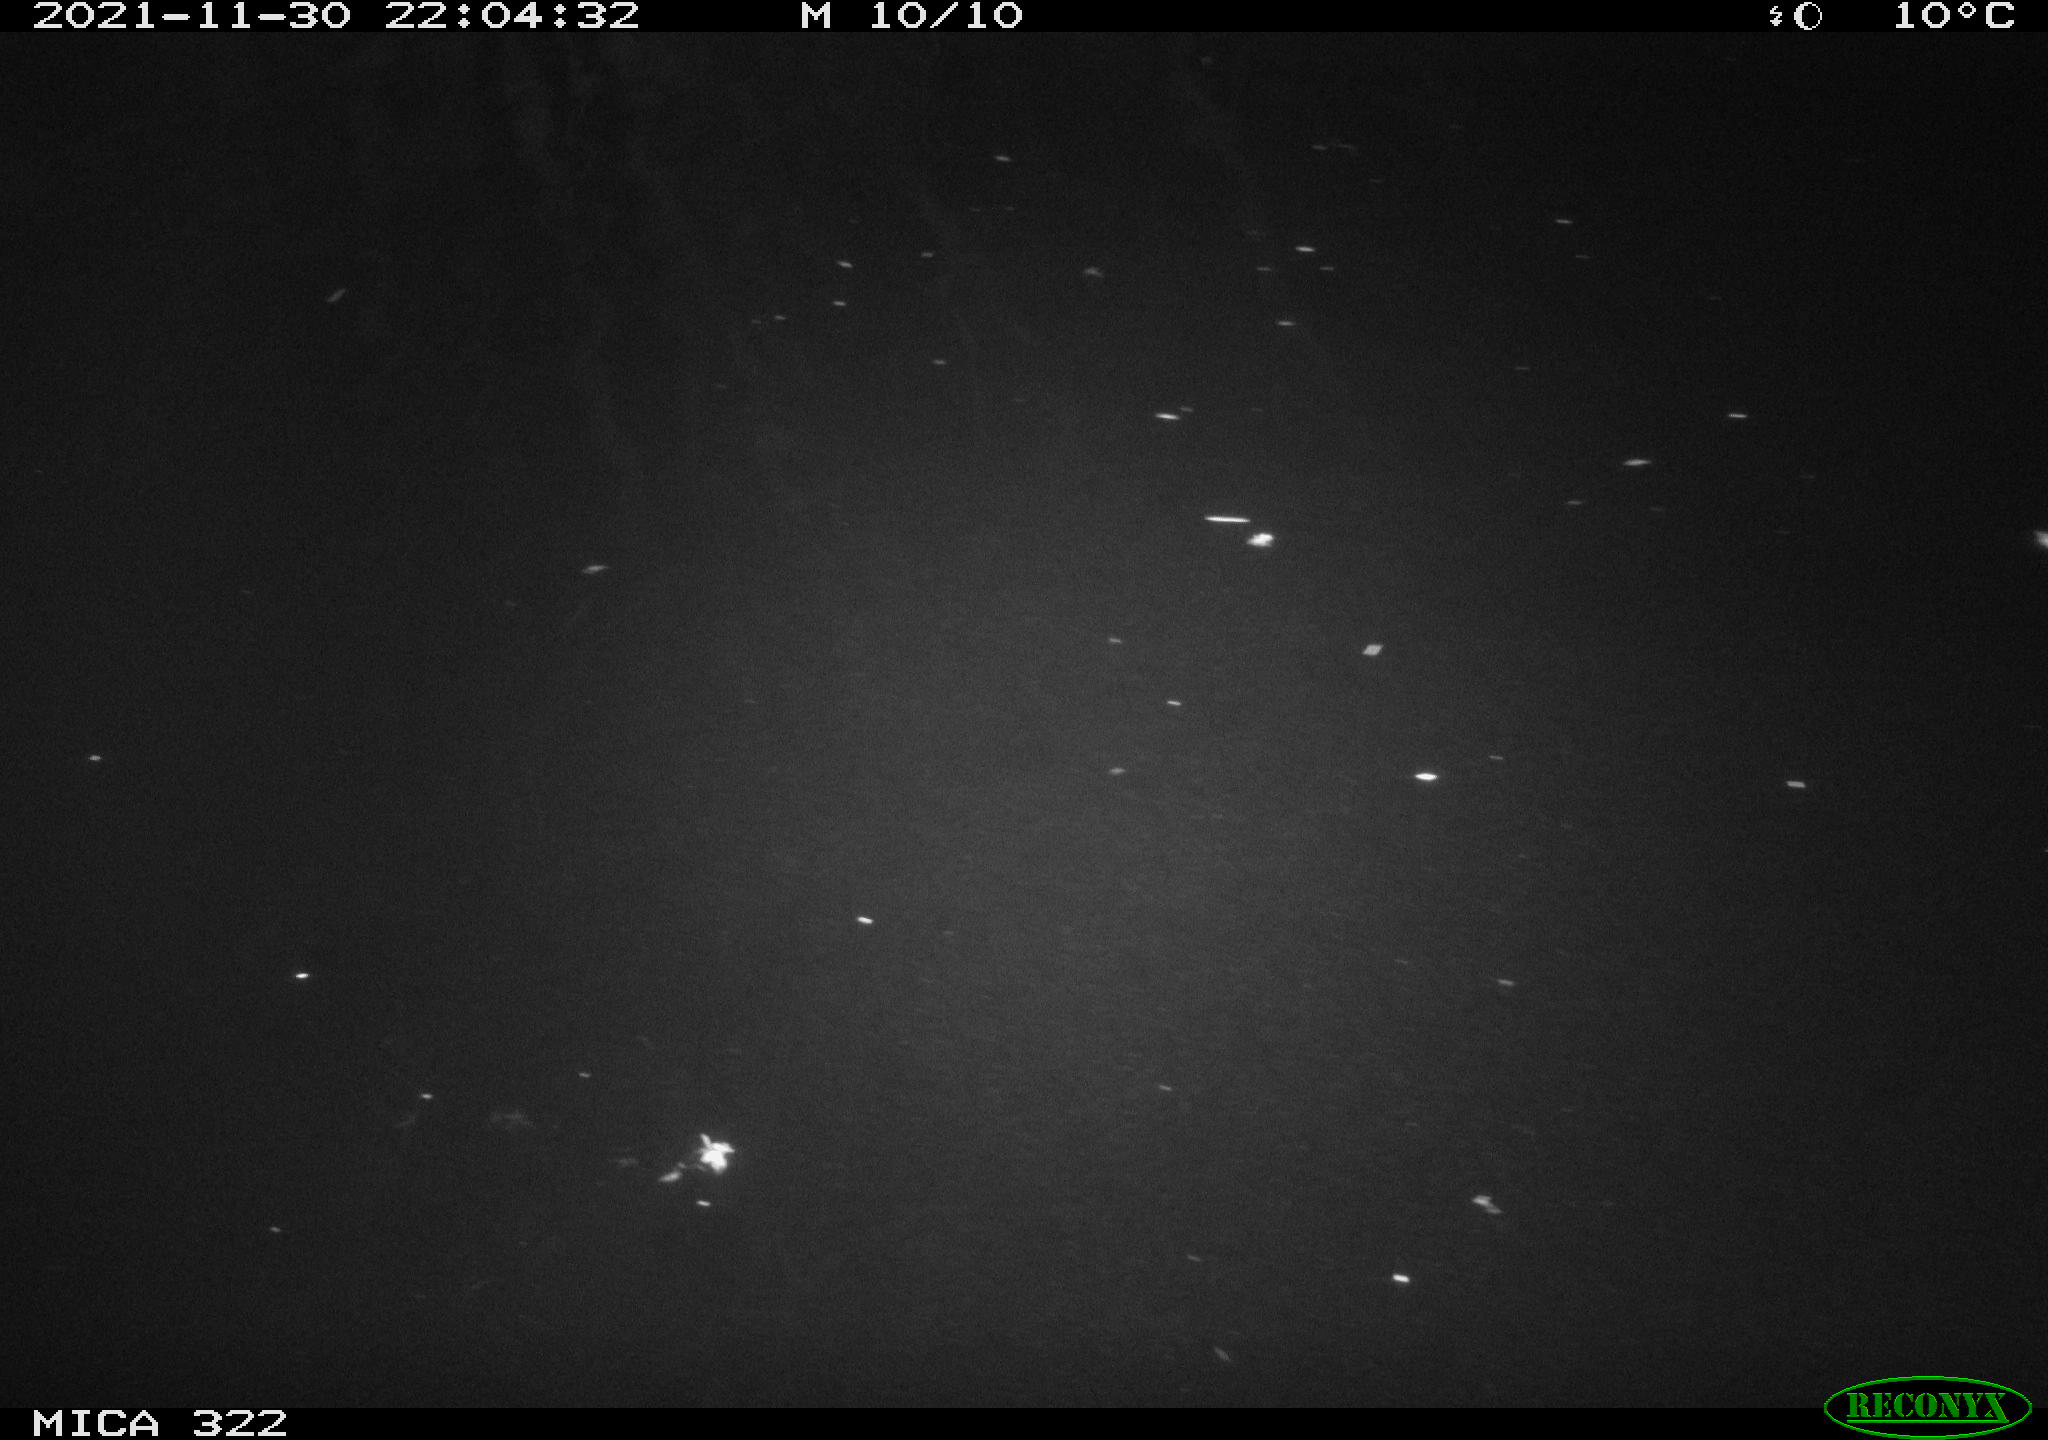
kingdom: Animalia
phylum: Chordata
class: Mammalia
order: Rodentia
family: Muridae
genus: Rattus
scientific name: Rattus norvegicus
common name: Brown rat
